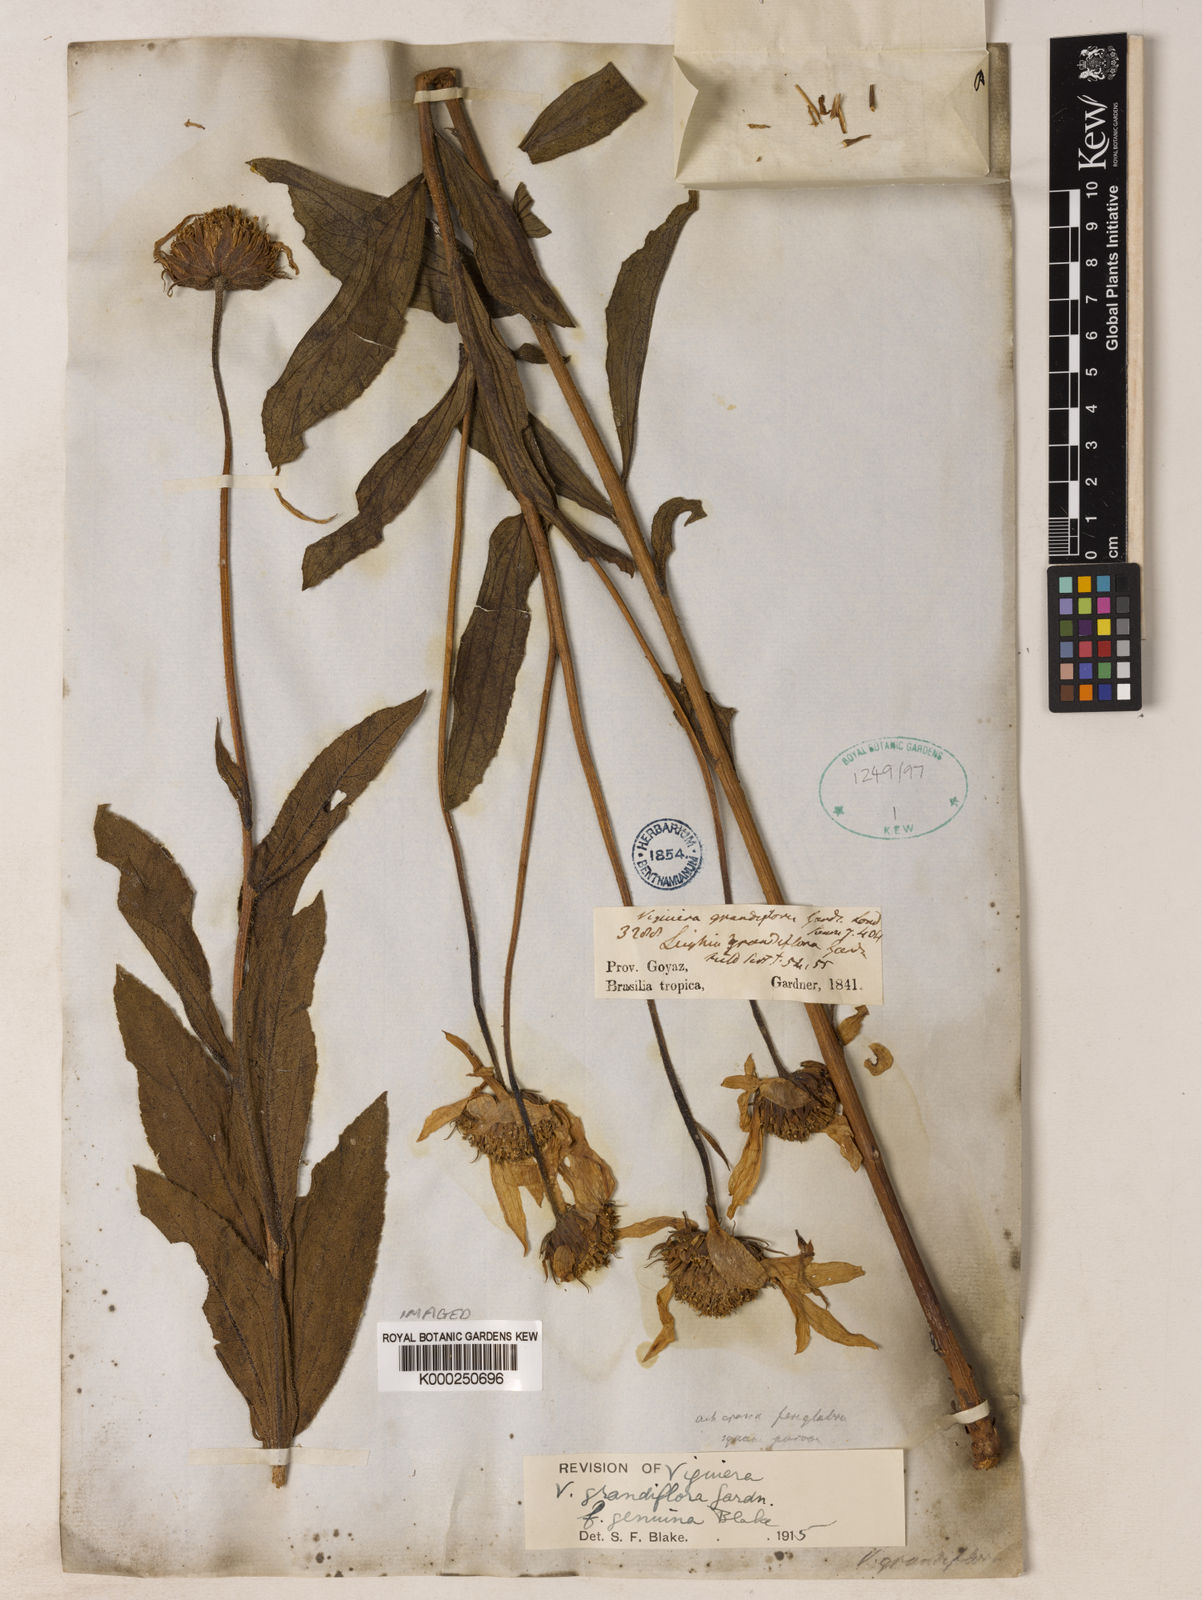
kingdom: Plantae
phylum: Tracheophyta
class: Magnoliopsida
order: Asterales
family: Asteraceae
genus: Aldama
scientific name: Aldama grandiflora
